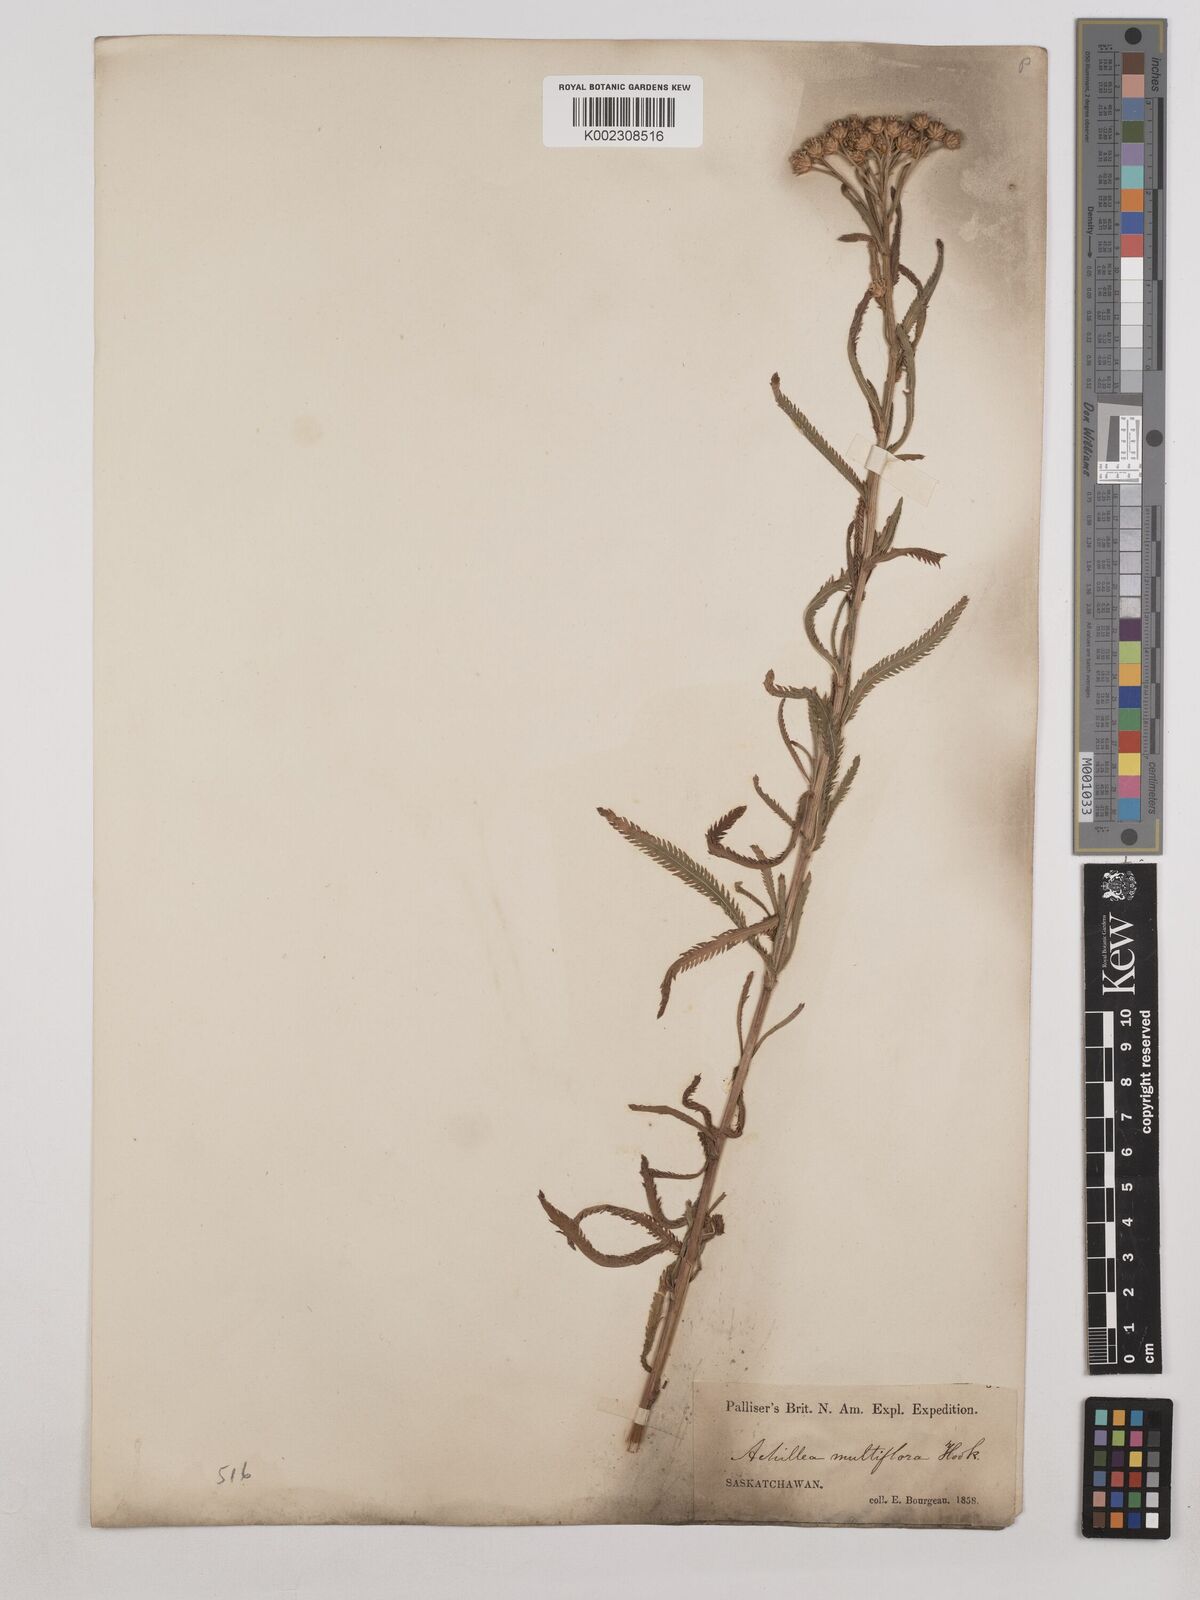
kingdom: Plantae
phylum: Tracheophyta
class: Magnoliopsida
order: Asterales
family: Asteraceae
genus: Achillea
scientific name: Achillea alpina
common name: Siberian yarrow
